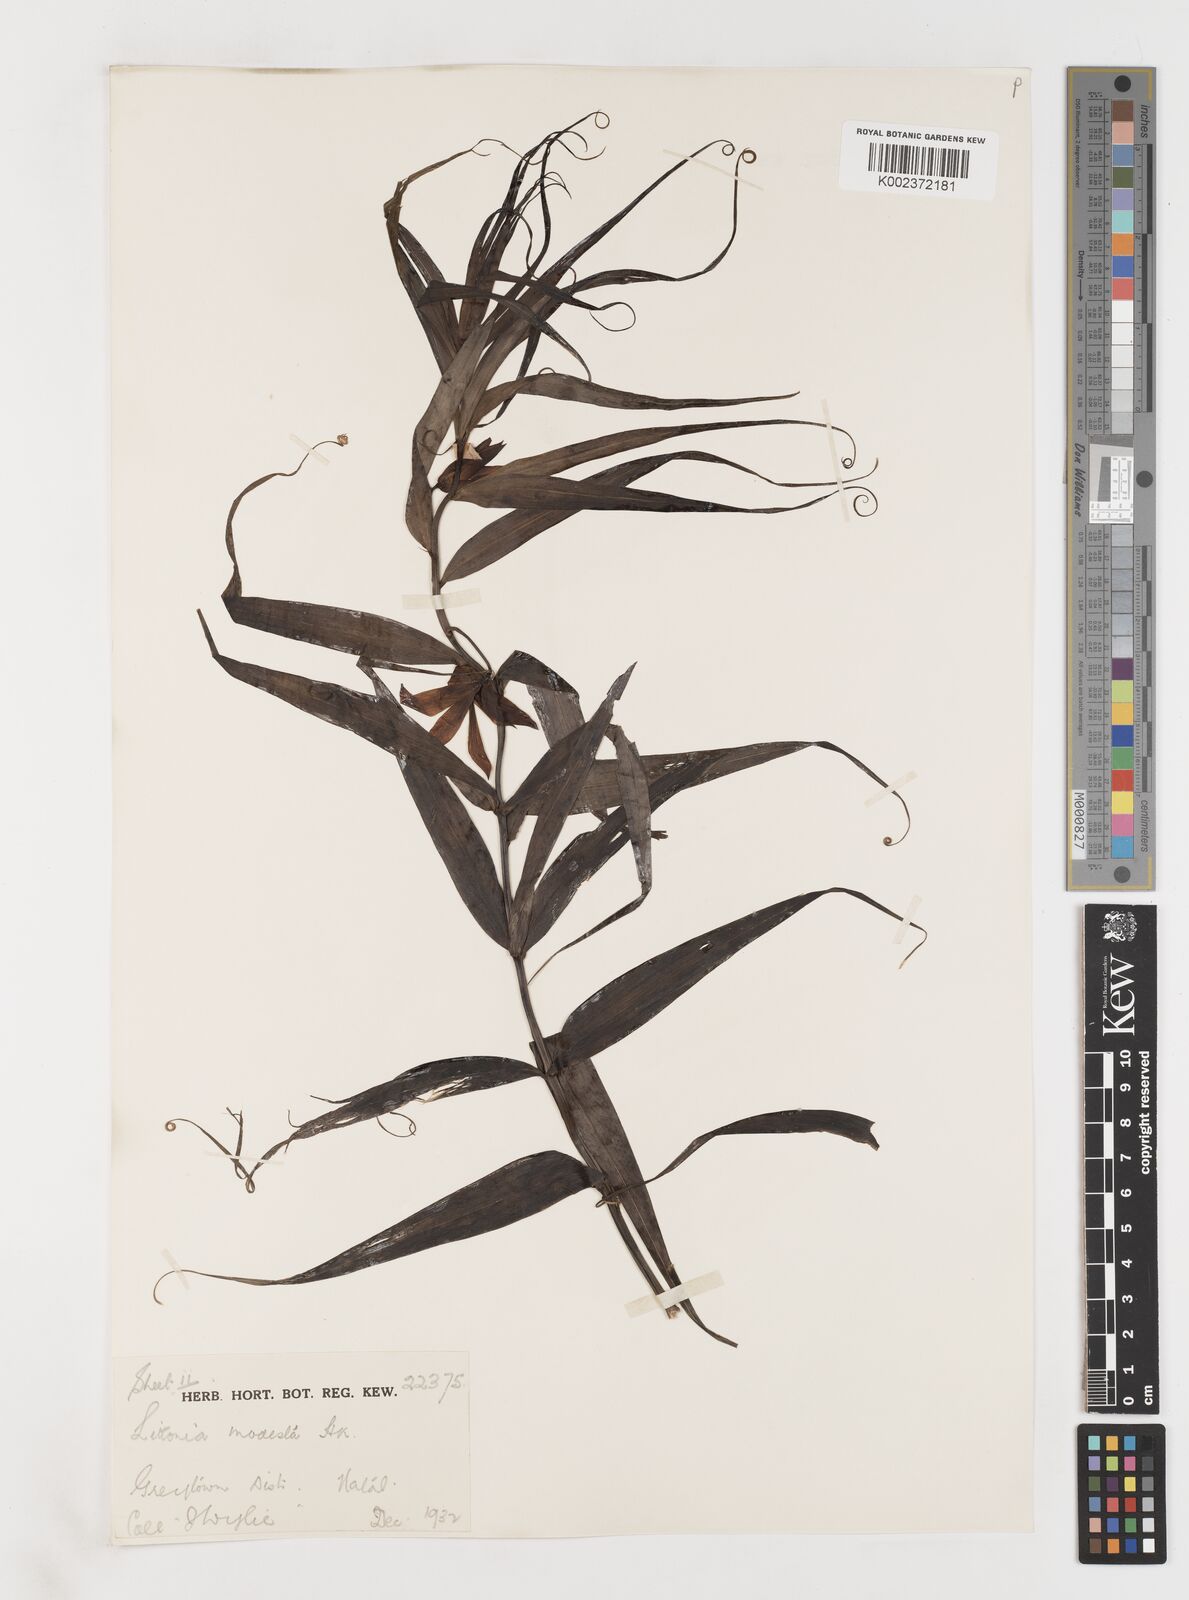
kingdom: Plantae
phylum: Tracheophyta
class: Liliopsida
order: Liliales
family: Colchicaceae
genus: Gloriosa
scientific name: Gloriosa modesta
